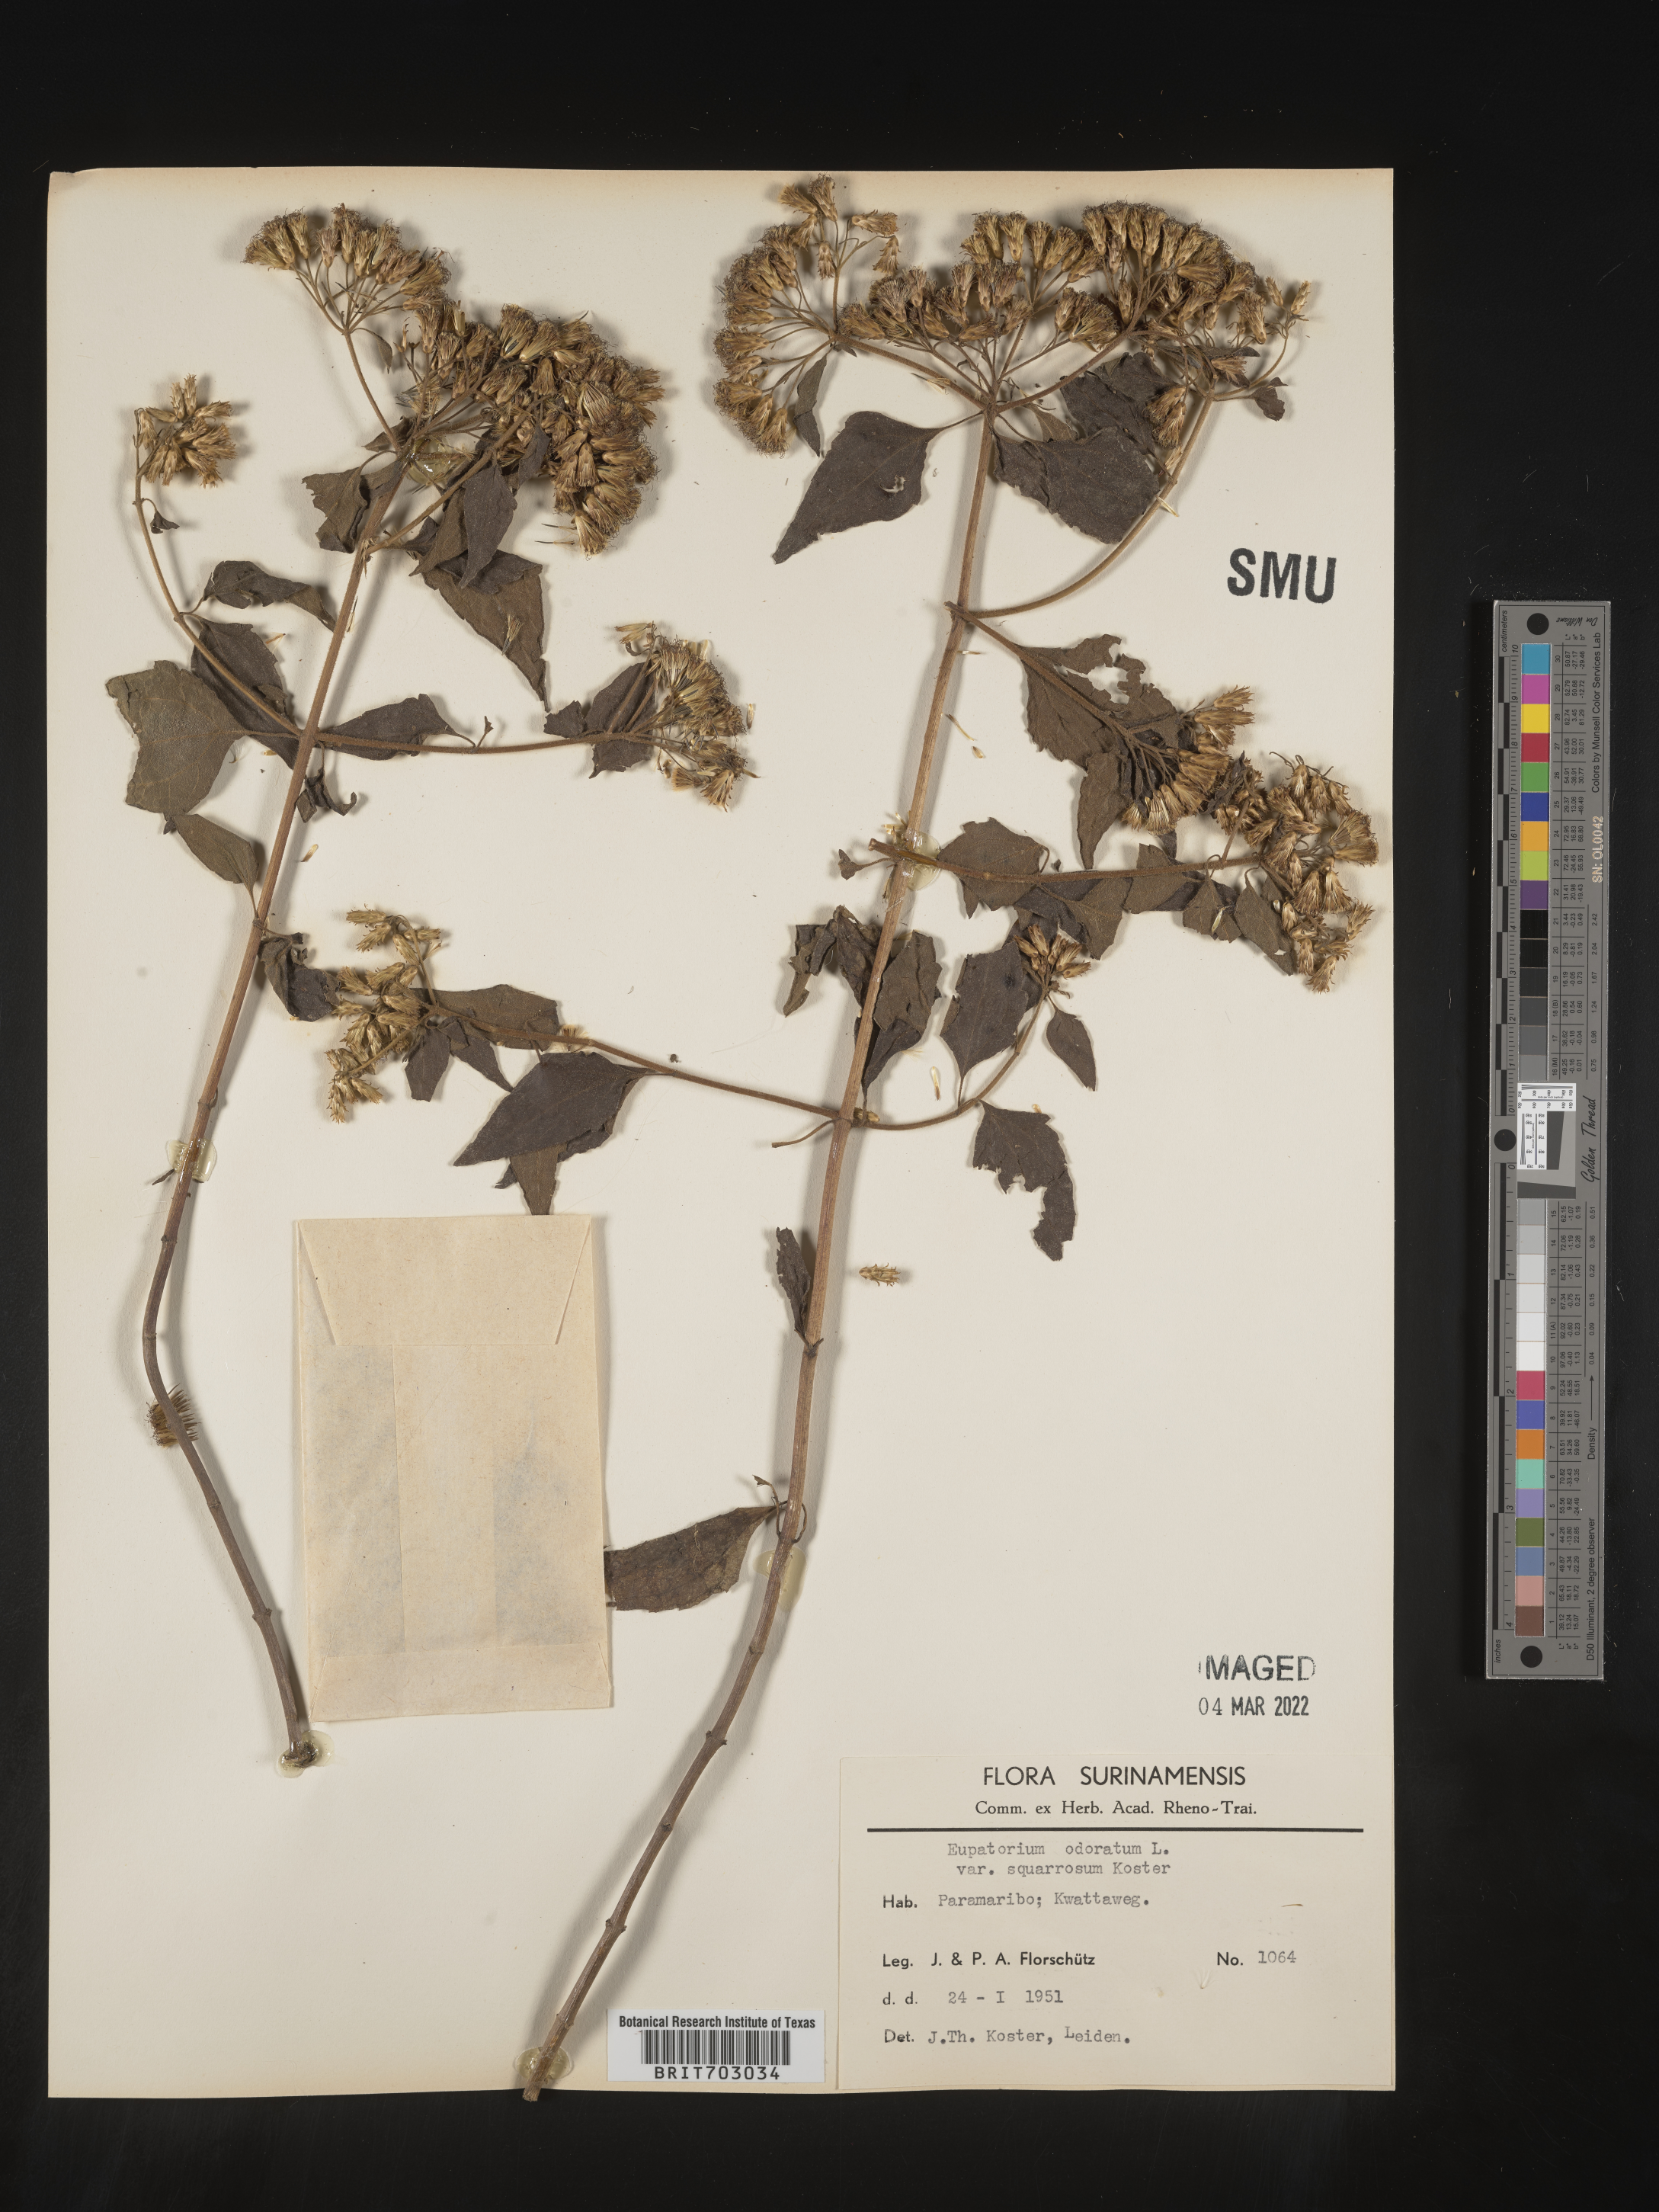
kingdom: Plantae
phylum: Tracheophyta
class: Magnoliopsida
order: Asterales
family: Asteraceae
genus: Eupatorium
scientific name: Eupatorium
